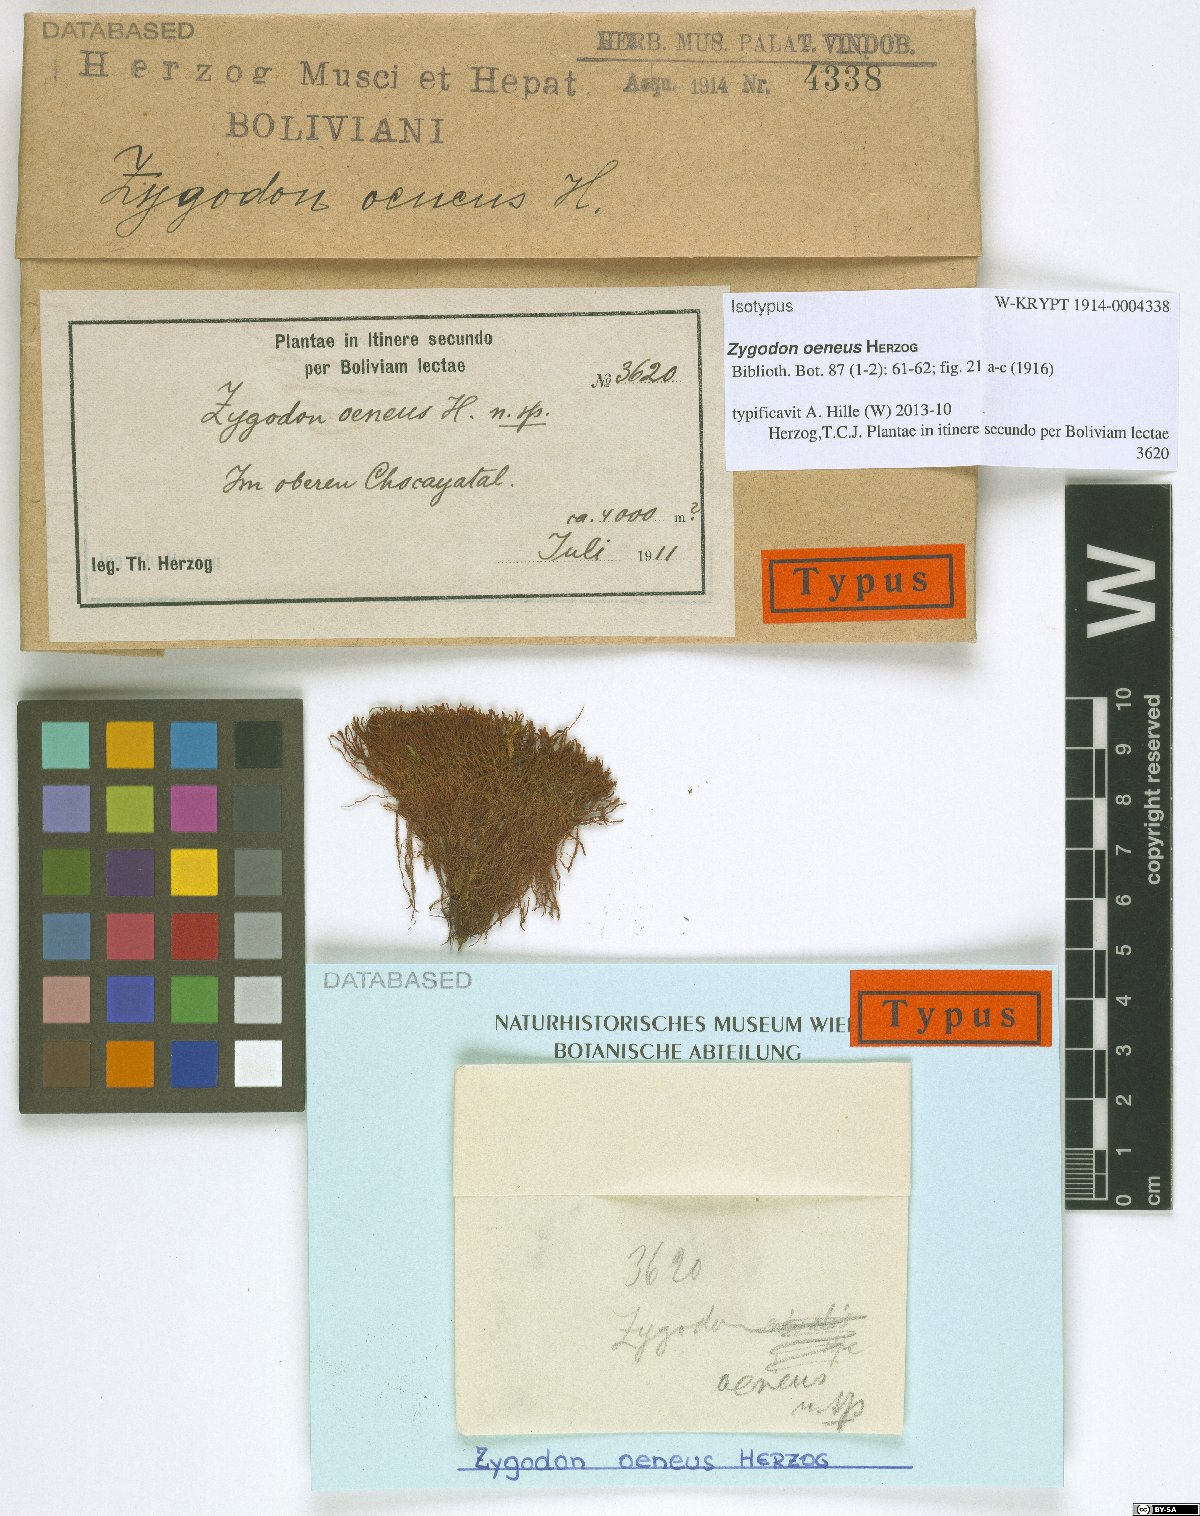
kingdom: Plantae
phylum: Bryophyta
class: Bryopsida
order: Orthotrichales
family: Orthotrichaceae
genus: Zygodon
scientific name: Zygodon oeneus
